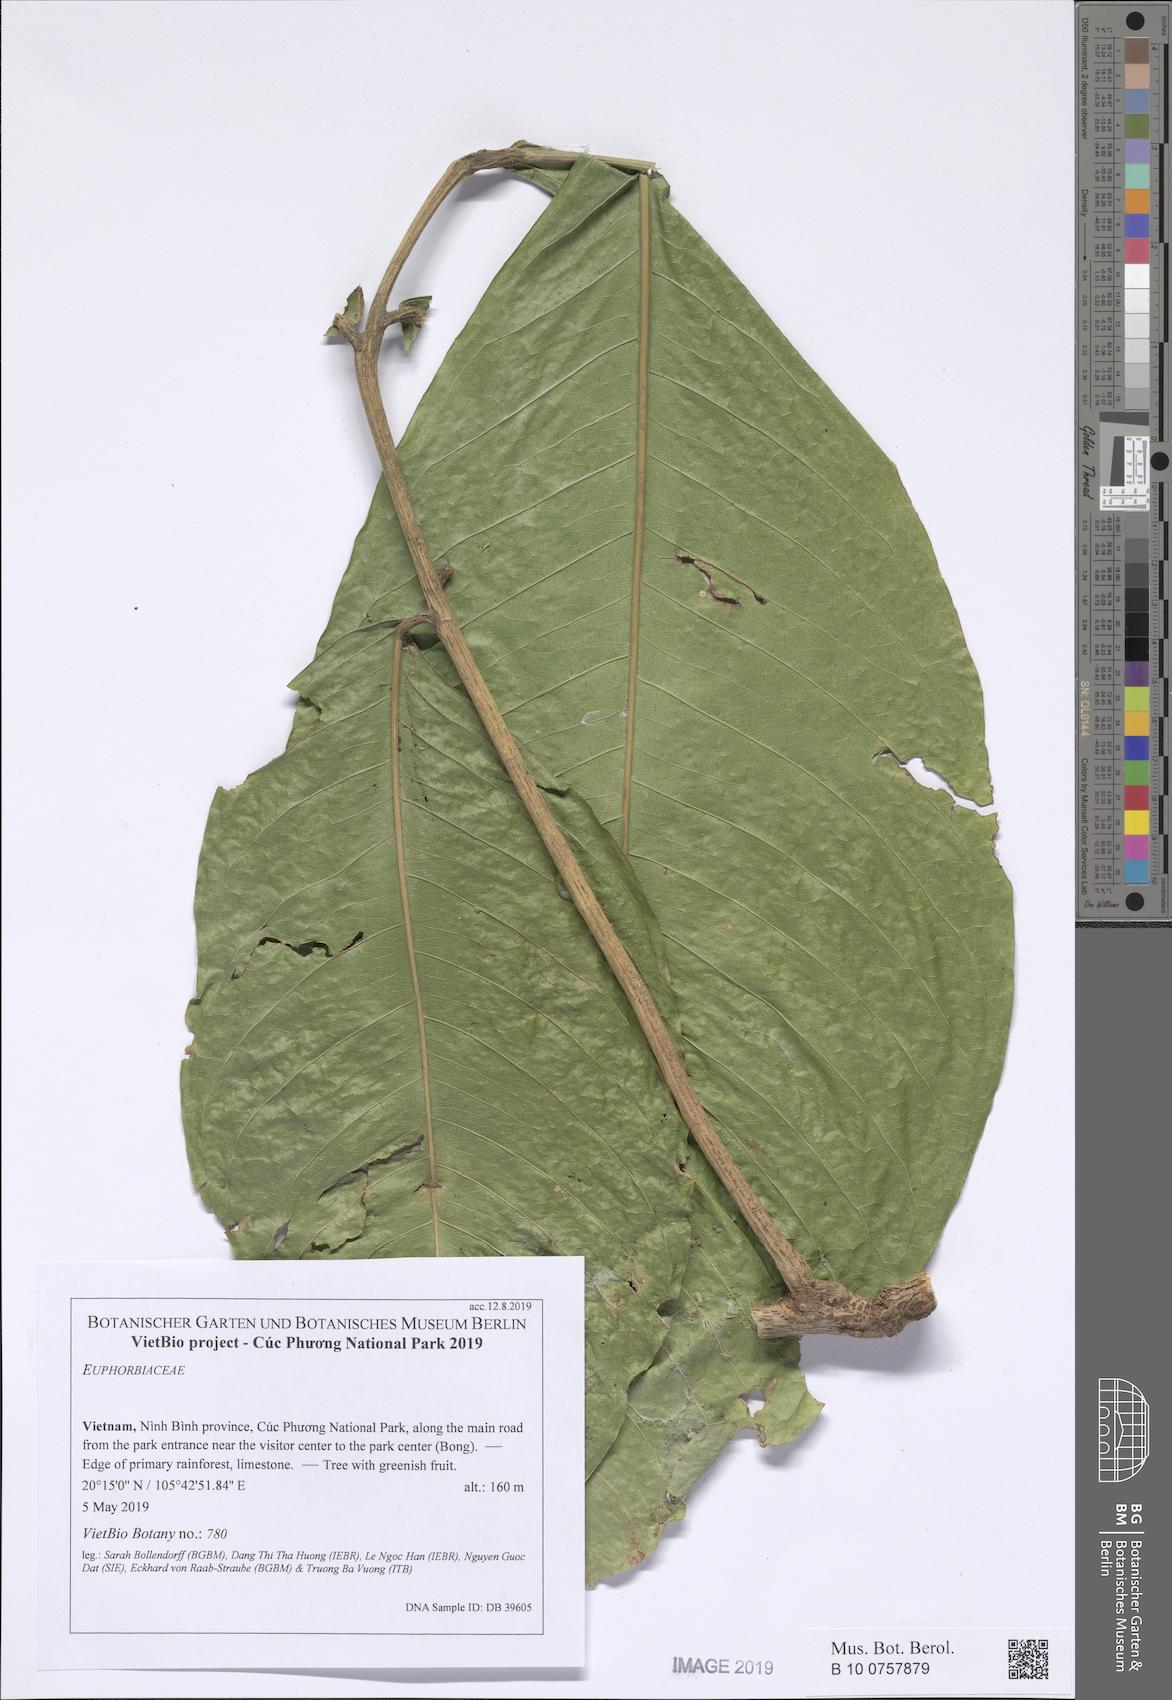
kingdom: Plantae
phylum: Tracheophyta
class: Magnoliopsida
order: Sapindales
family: Sapindaceae
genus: Lepisanthes
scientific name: Lepisanthes
